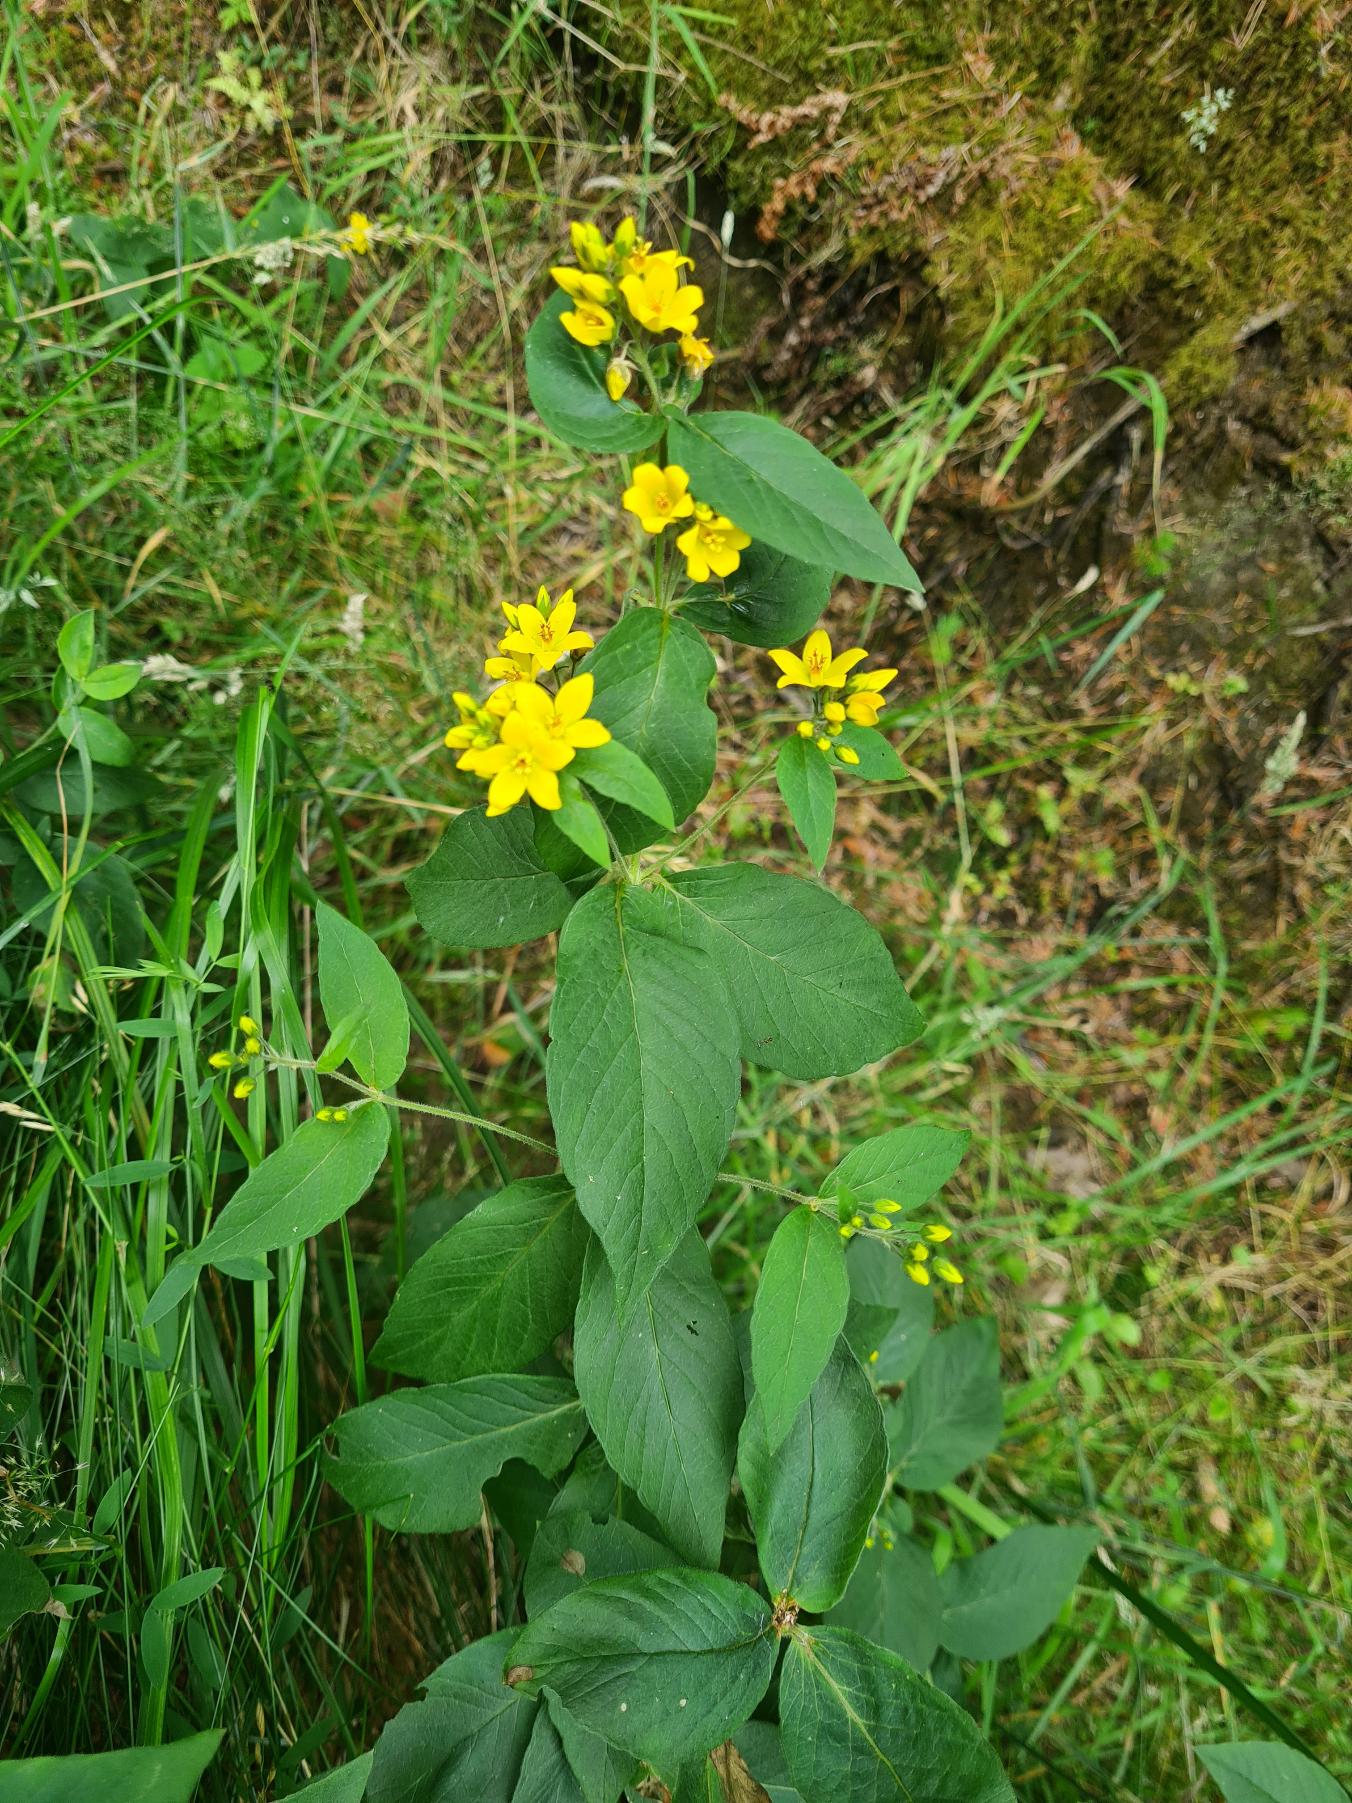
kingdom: Plantae
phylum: Tracheophyta
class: Magnoliopsida
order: Ericales
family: Primulaceae
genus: Lysimachia
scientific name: Lysimachia vulgaris
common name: Almindelig fredløs
